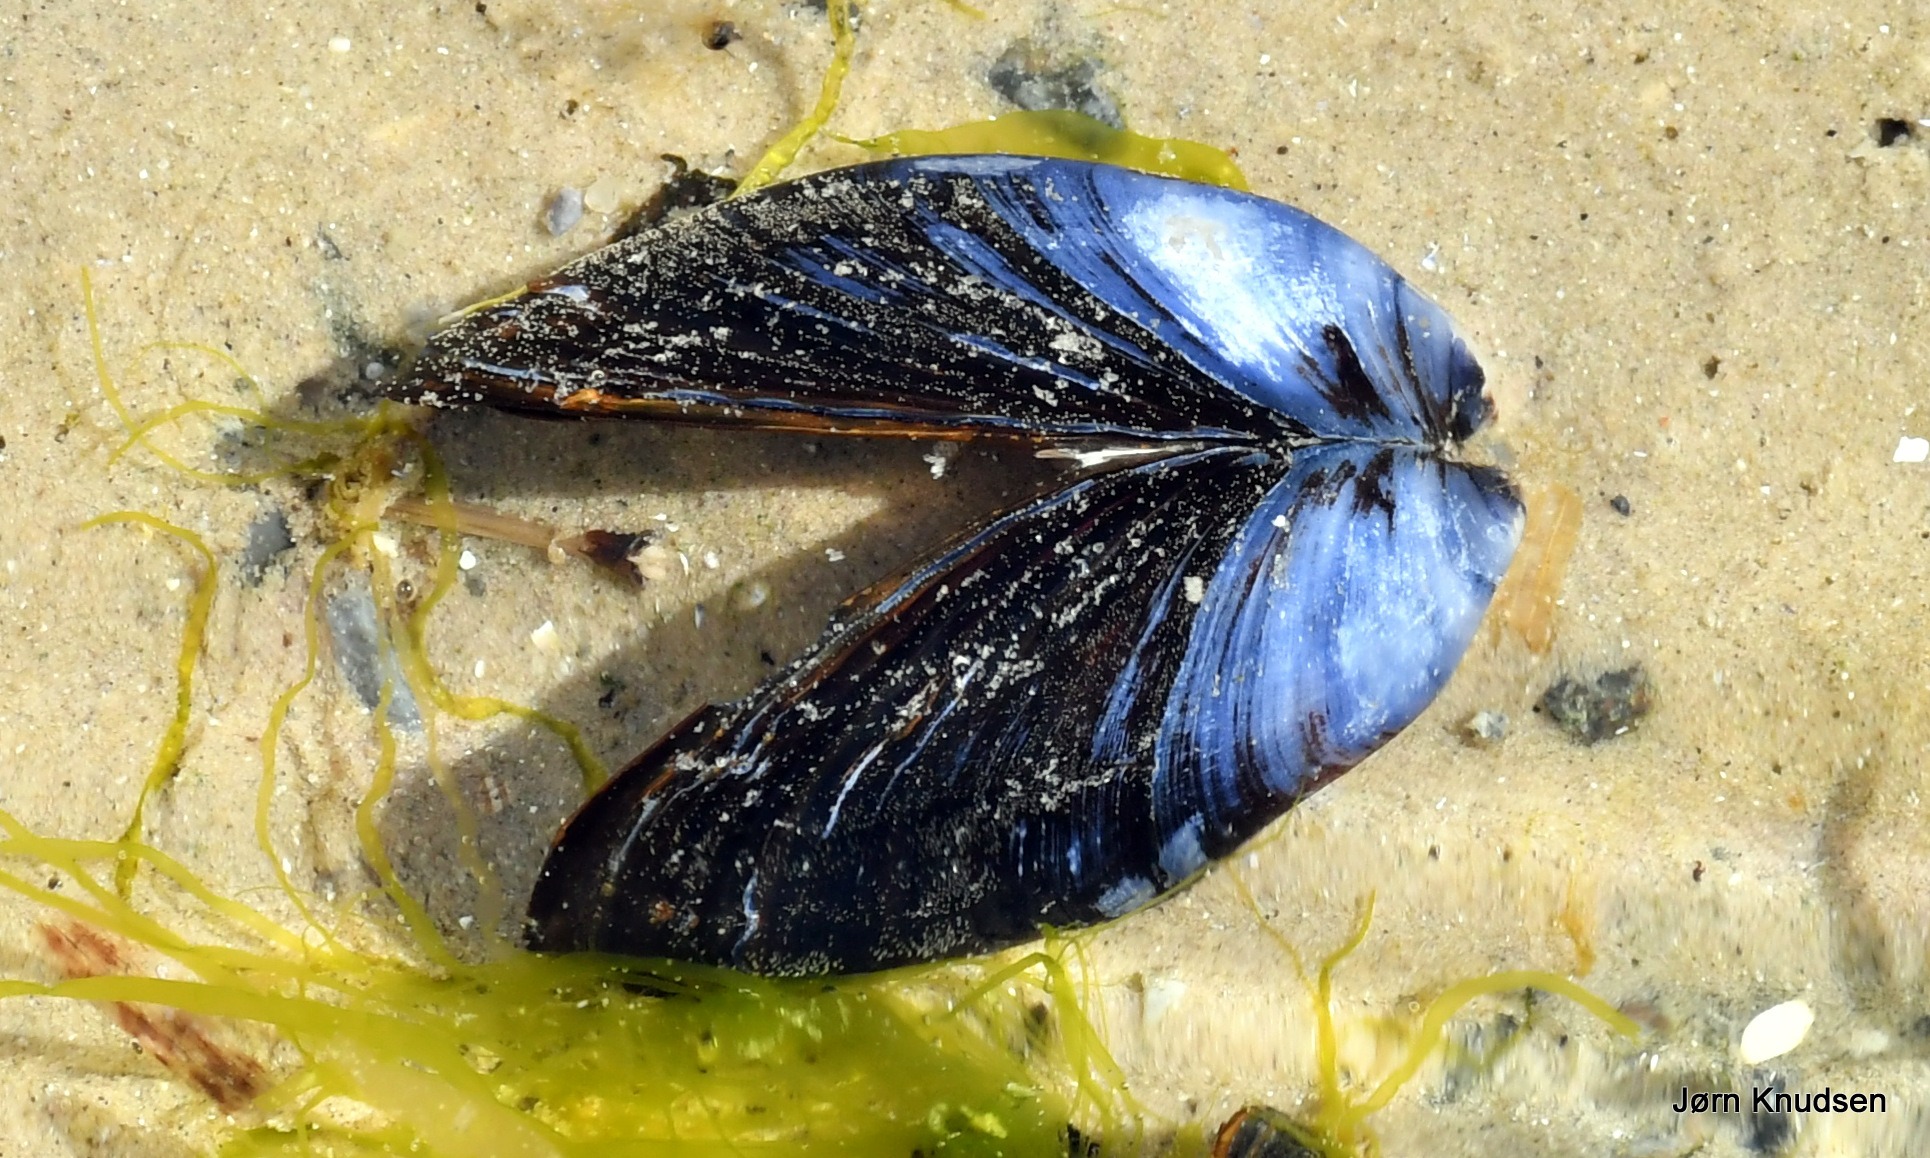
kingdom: Animalia
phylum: Mollusca
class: Bivalvia
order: Mytilida
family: Mytilidae
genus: Mytilus
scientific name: Mytilus edulis
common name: Blåmusling
